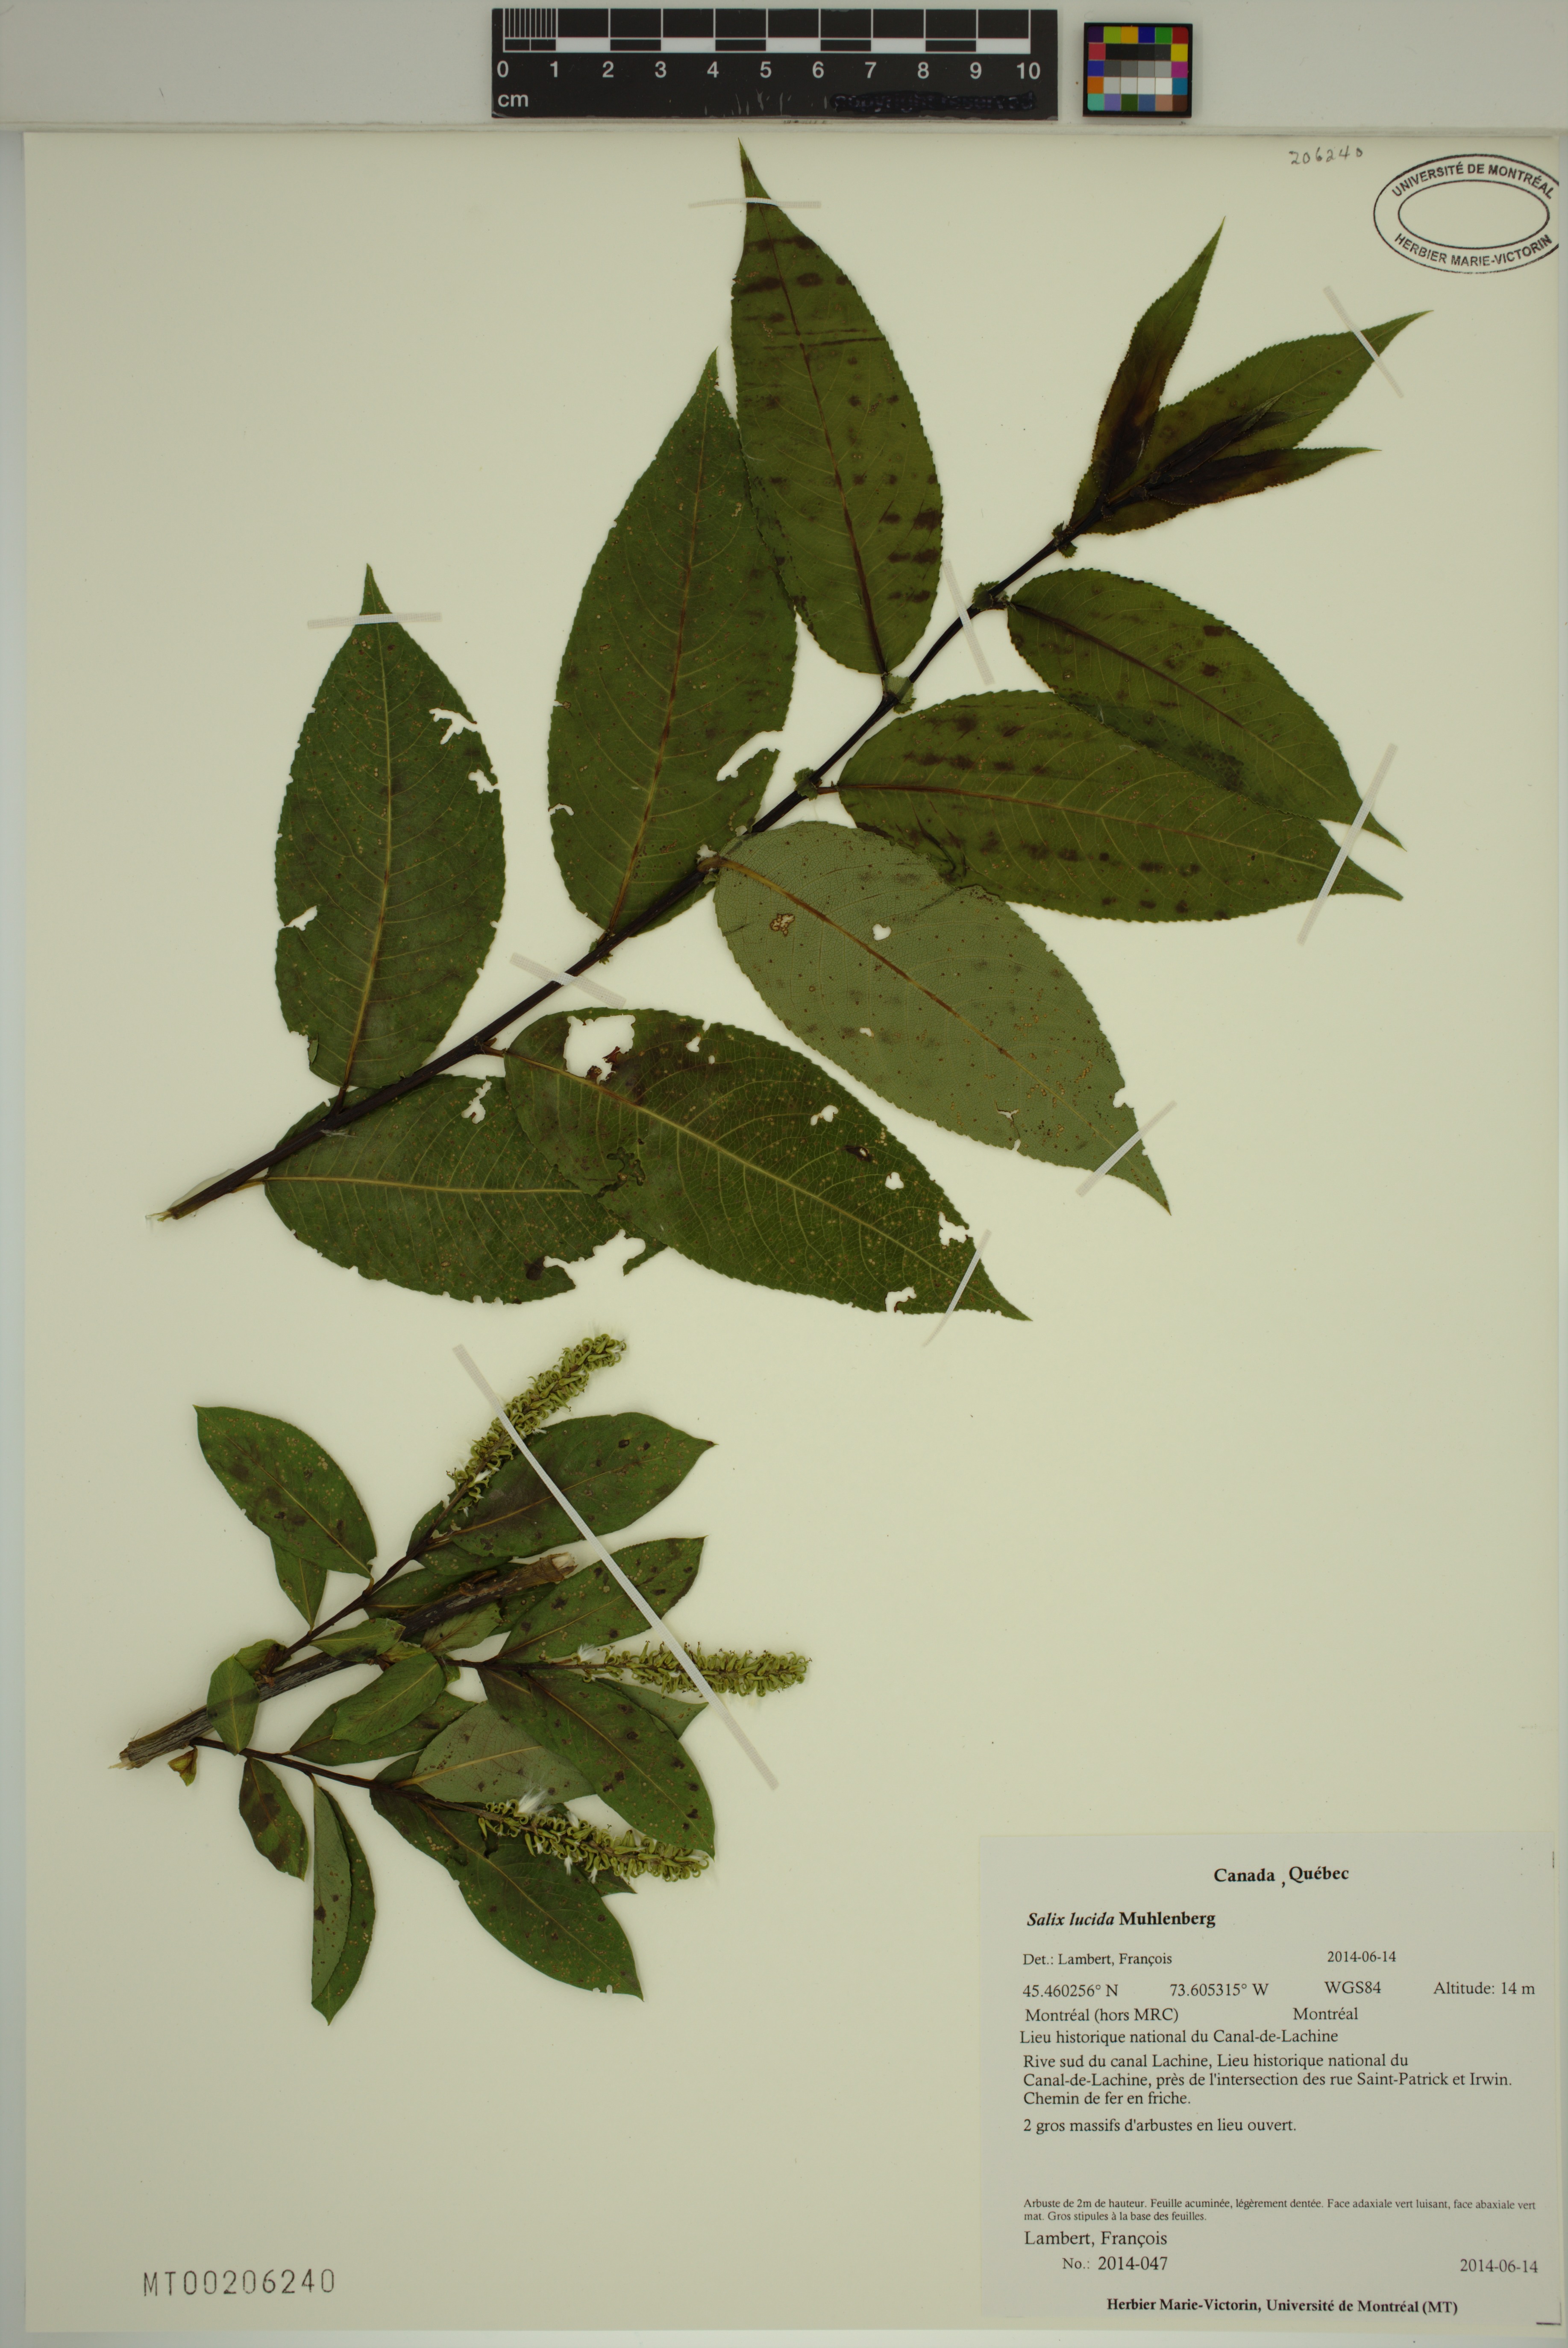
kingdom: Plantae
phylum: Tracheophyta
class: Magnoliopsida
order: Malpighiales
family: Salicaceae
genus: Salix
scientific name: Salix lucida
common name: Shining willow
